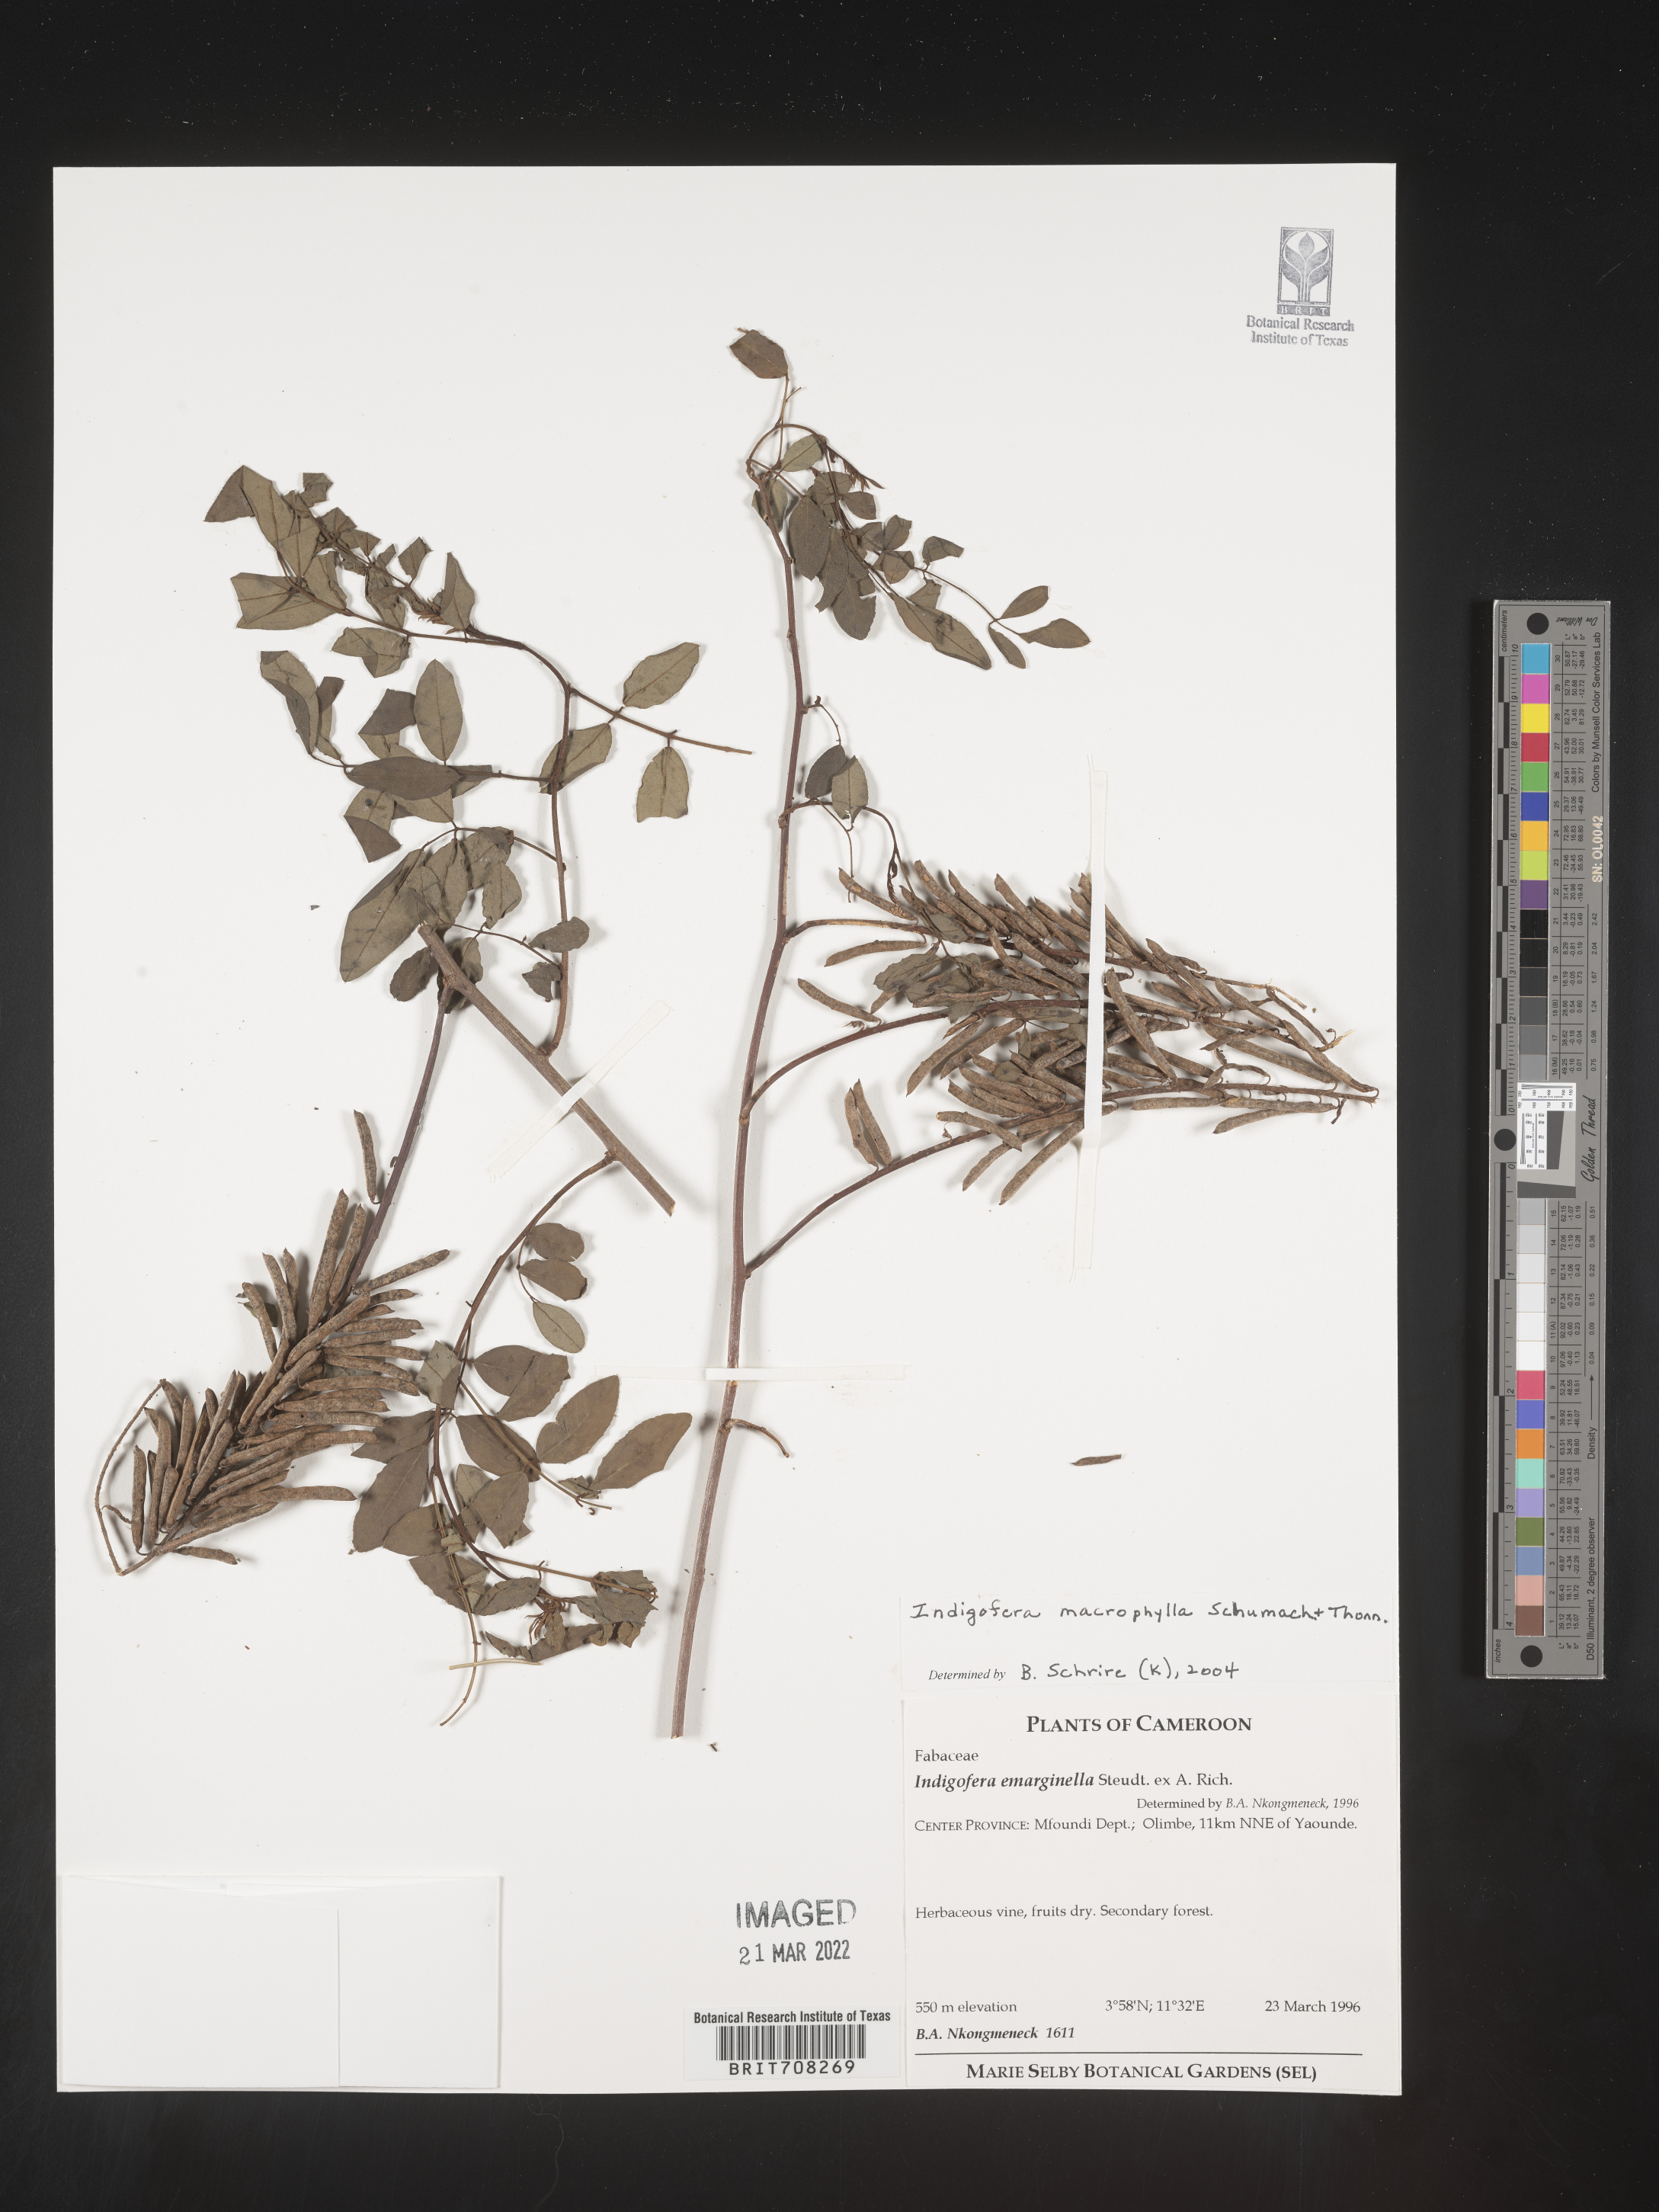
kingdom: Plantae
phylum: Tracheophyta
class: Magnoliopsida
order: Fabales
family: Fabaceae
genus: Indigofera
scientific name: Indigofera
